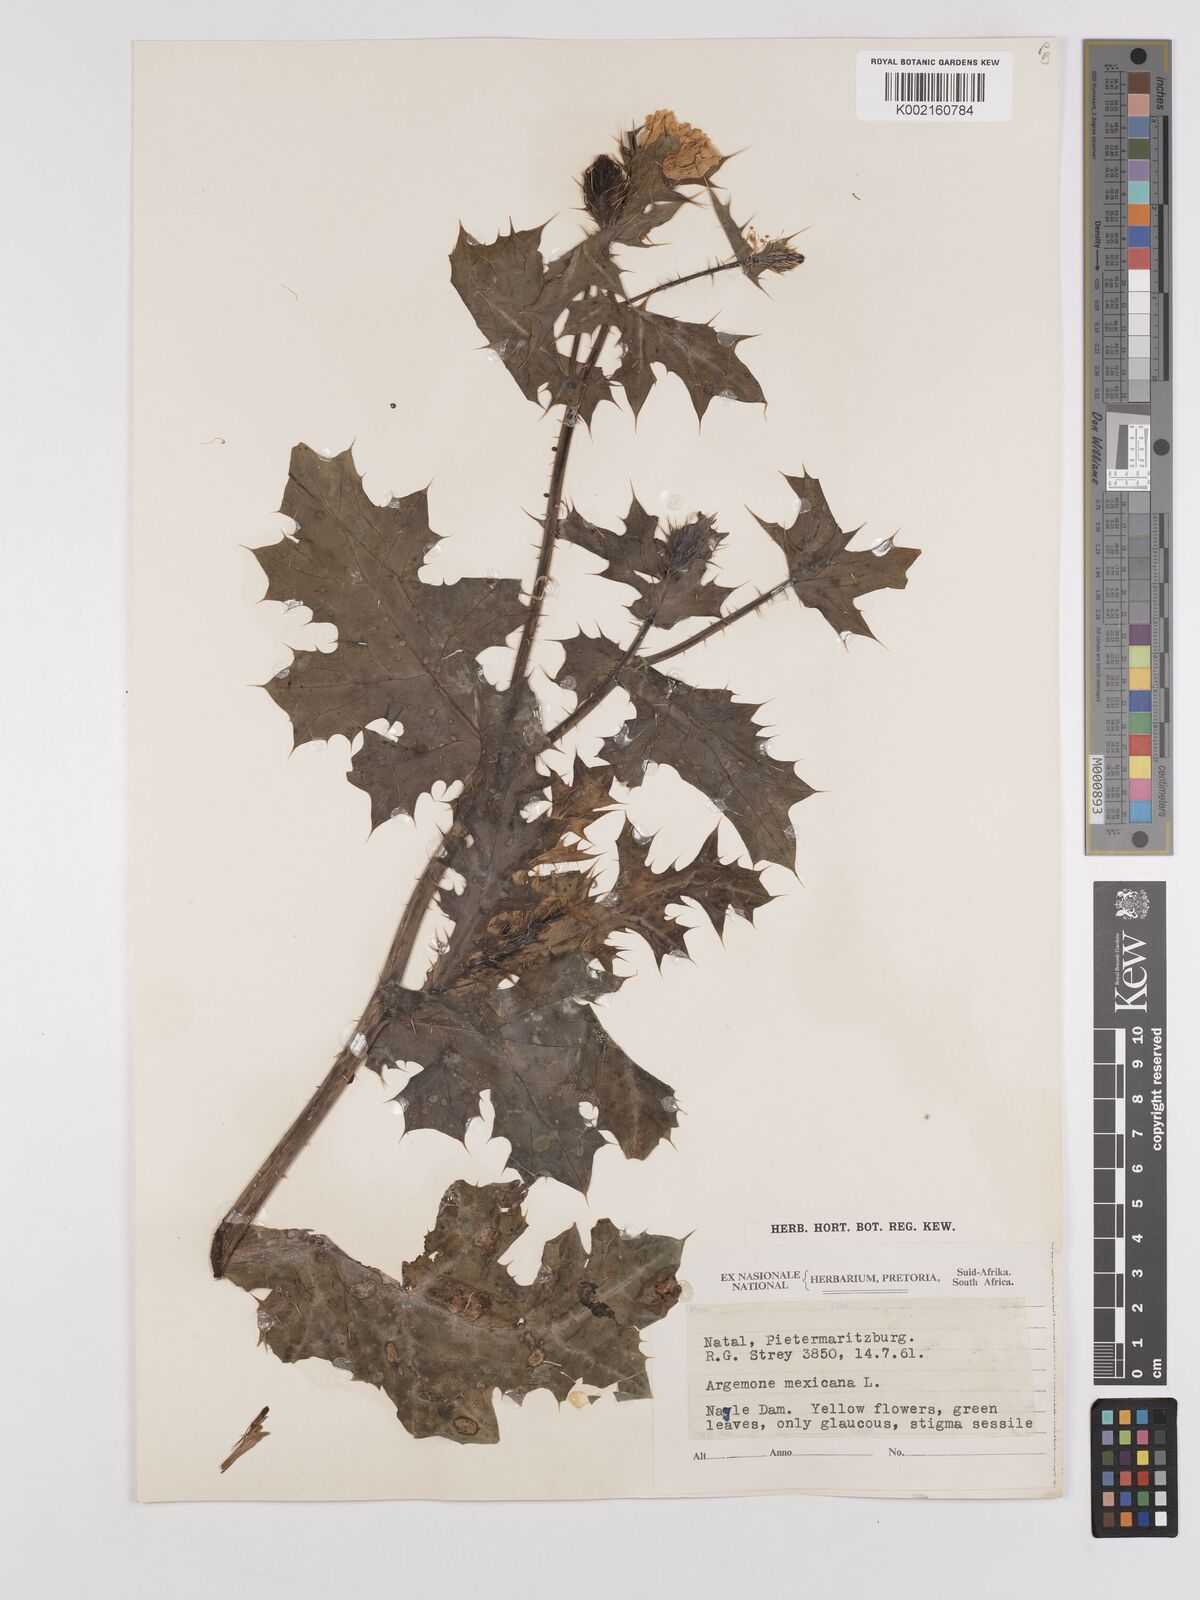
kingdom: Plantae
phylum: Tracheophyta
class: Magnoliopsida
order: Ranunculales
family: Papaveraceae
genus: Argemone
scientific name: Argemone ochroleuca
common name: White-flower mexican-poppy
